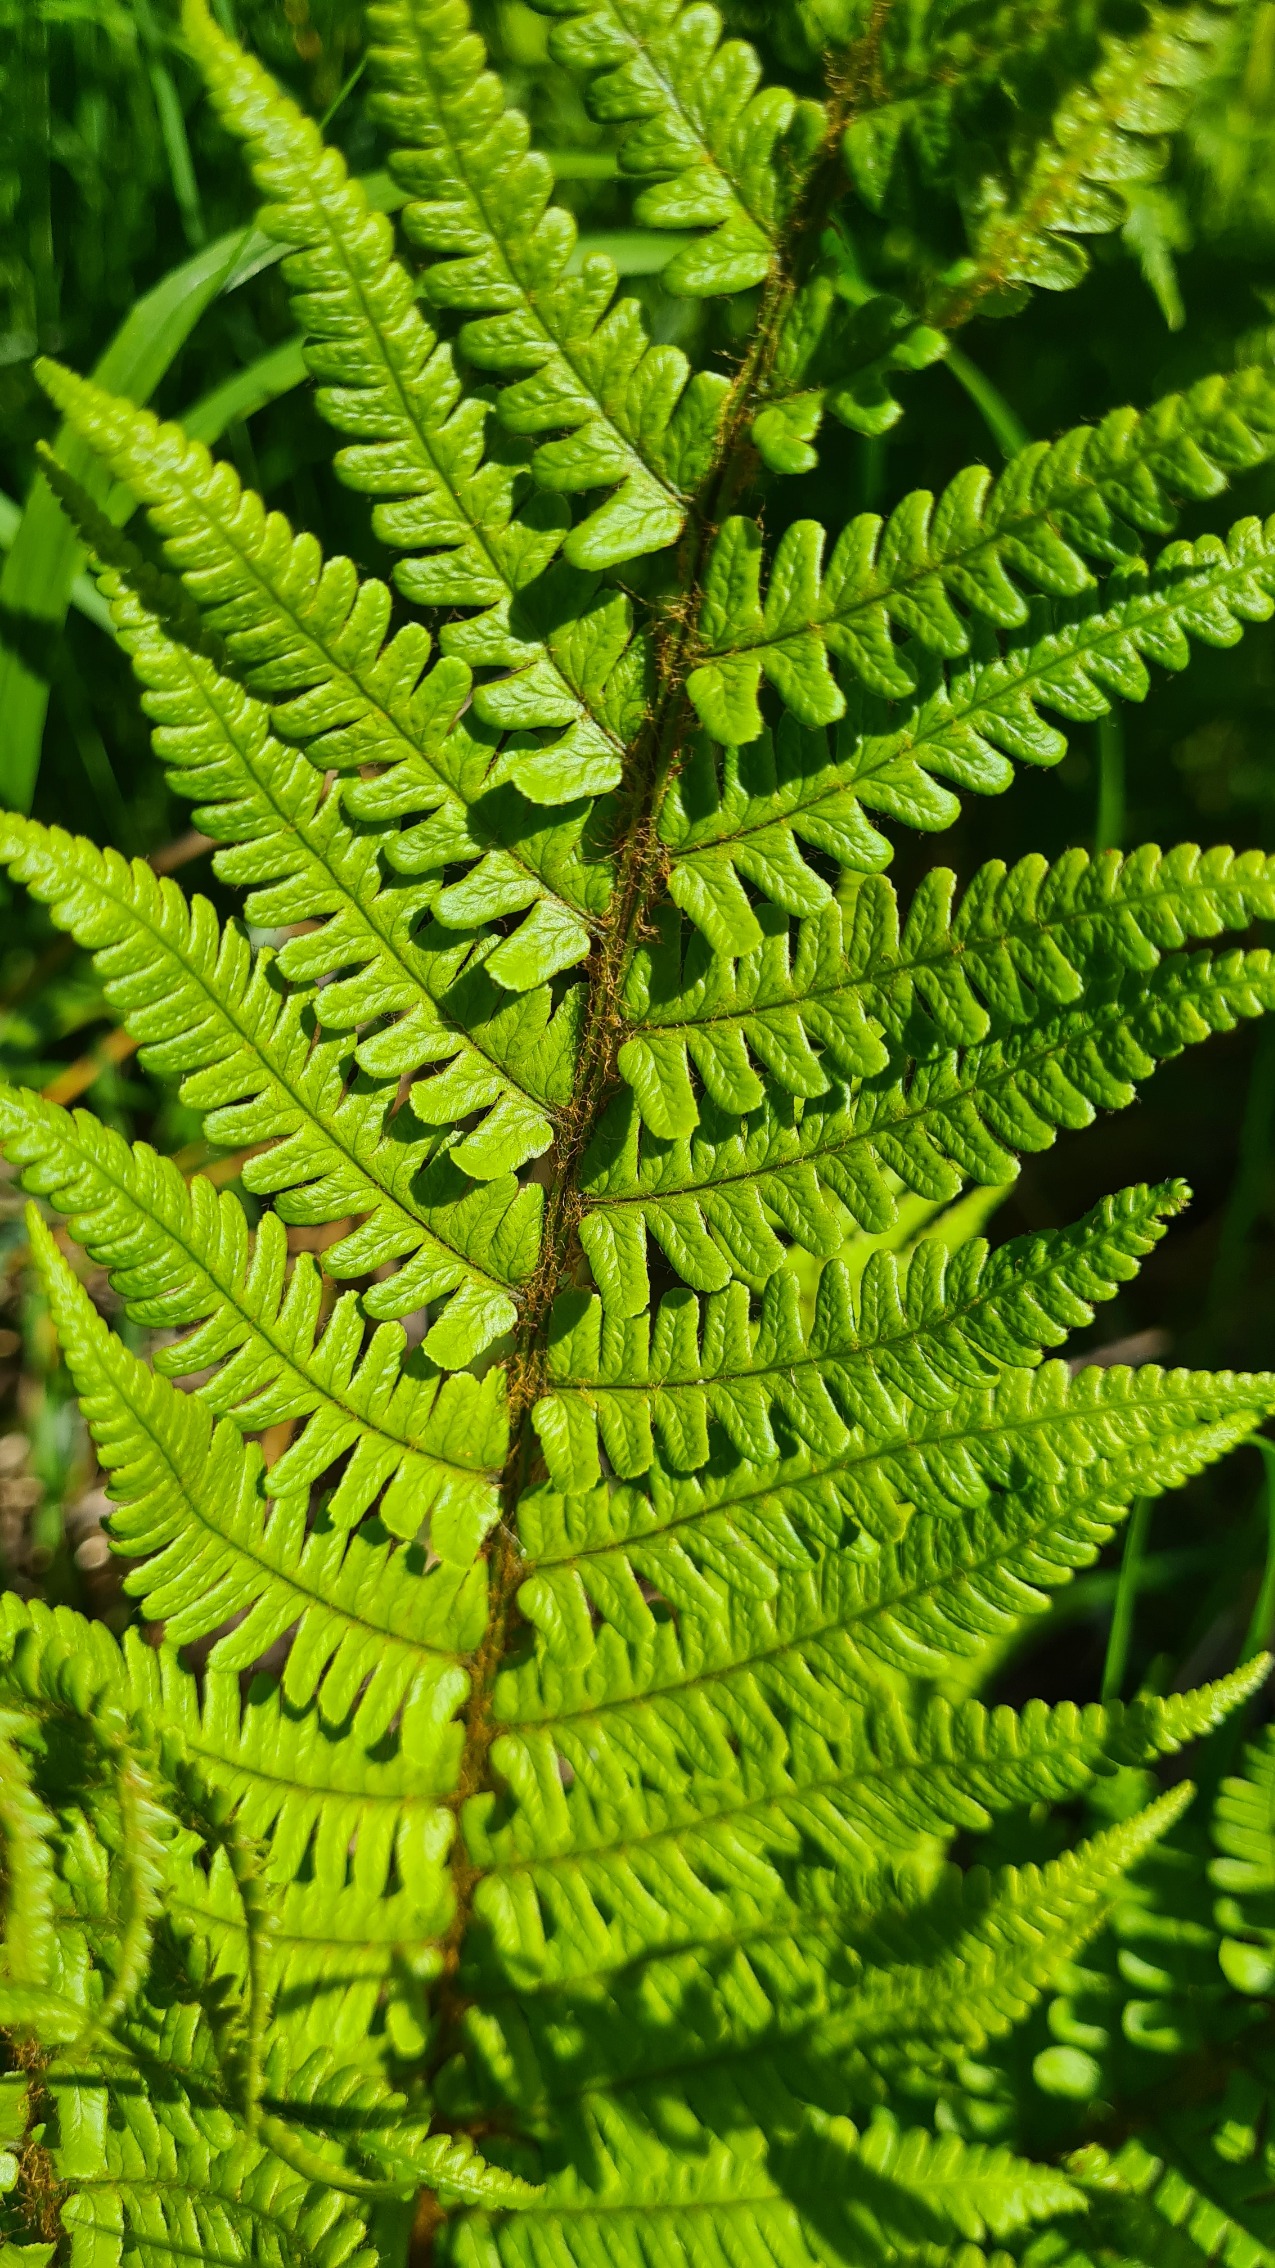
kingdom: Plantae
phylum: Tracheophyta
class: Polypodiopsida
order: Polypodiales
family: Dryopteridaceae
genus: Dryopteris
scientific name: Dryopteris affinis
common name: Guldskæl-mangeløv
